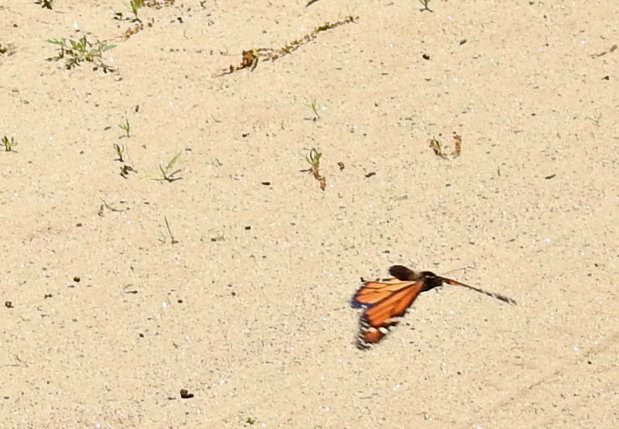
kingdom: Animalia
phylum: Arthropoda
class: Insecta
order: Lepidoptera
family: Nymphalidae
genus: Danaus
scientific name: Danaus plexippus
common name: Monarch
